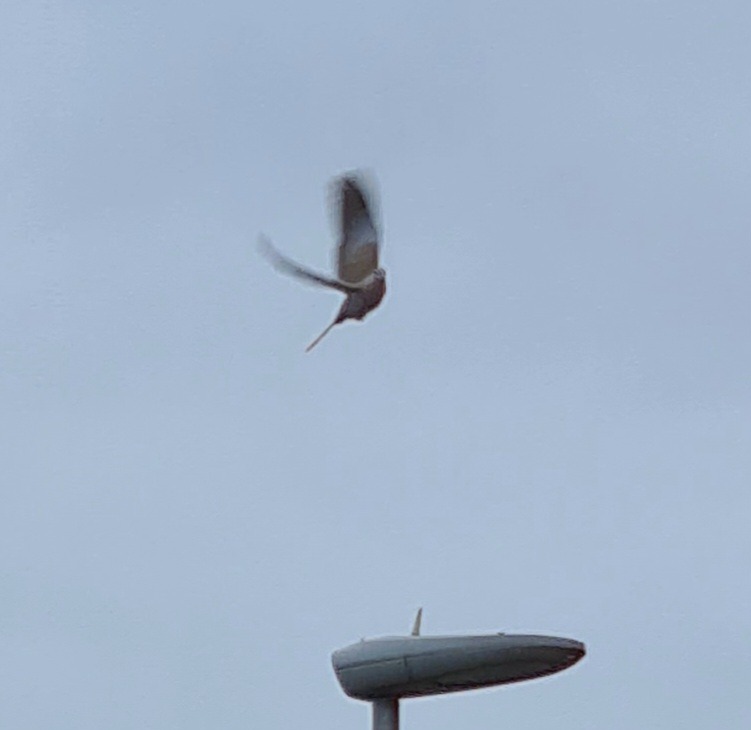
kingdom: Animalia
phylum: Chordata
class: Aves
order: Columbiformes
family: Columbidae
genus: Streptopelia
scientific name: Streptopelia decaocto
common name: Tyrkerdue
